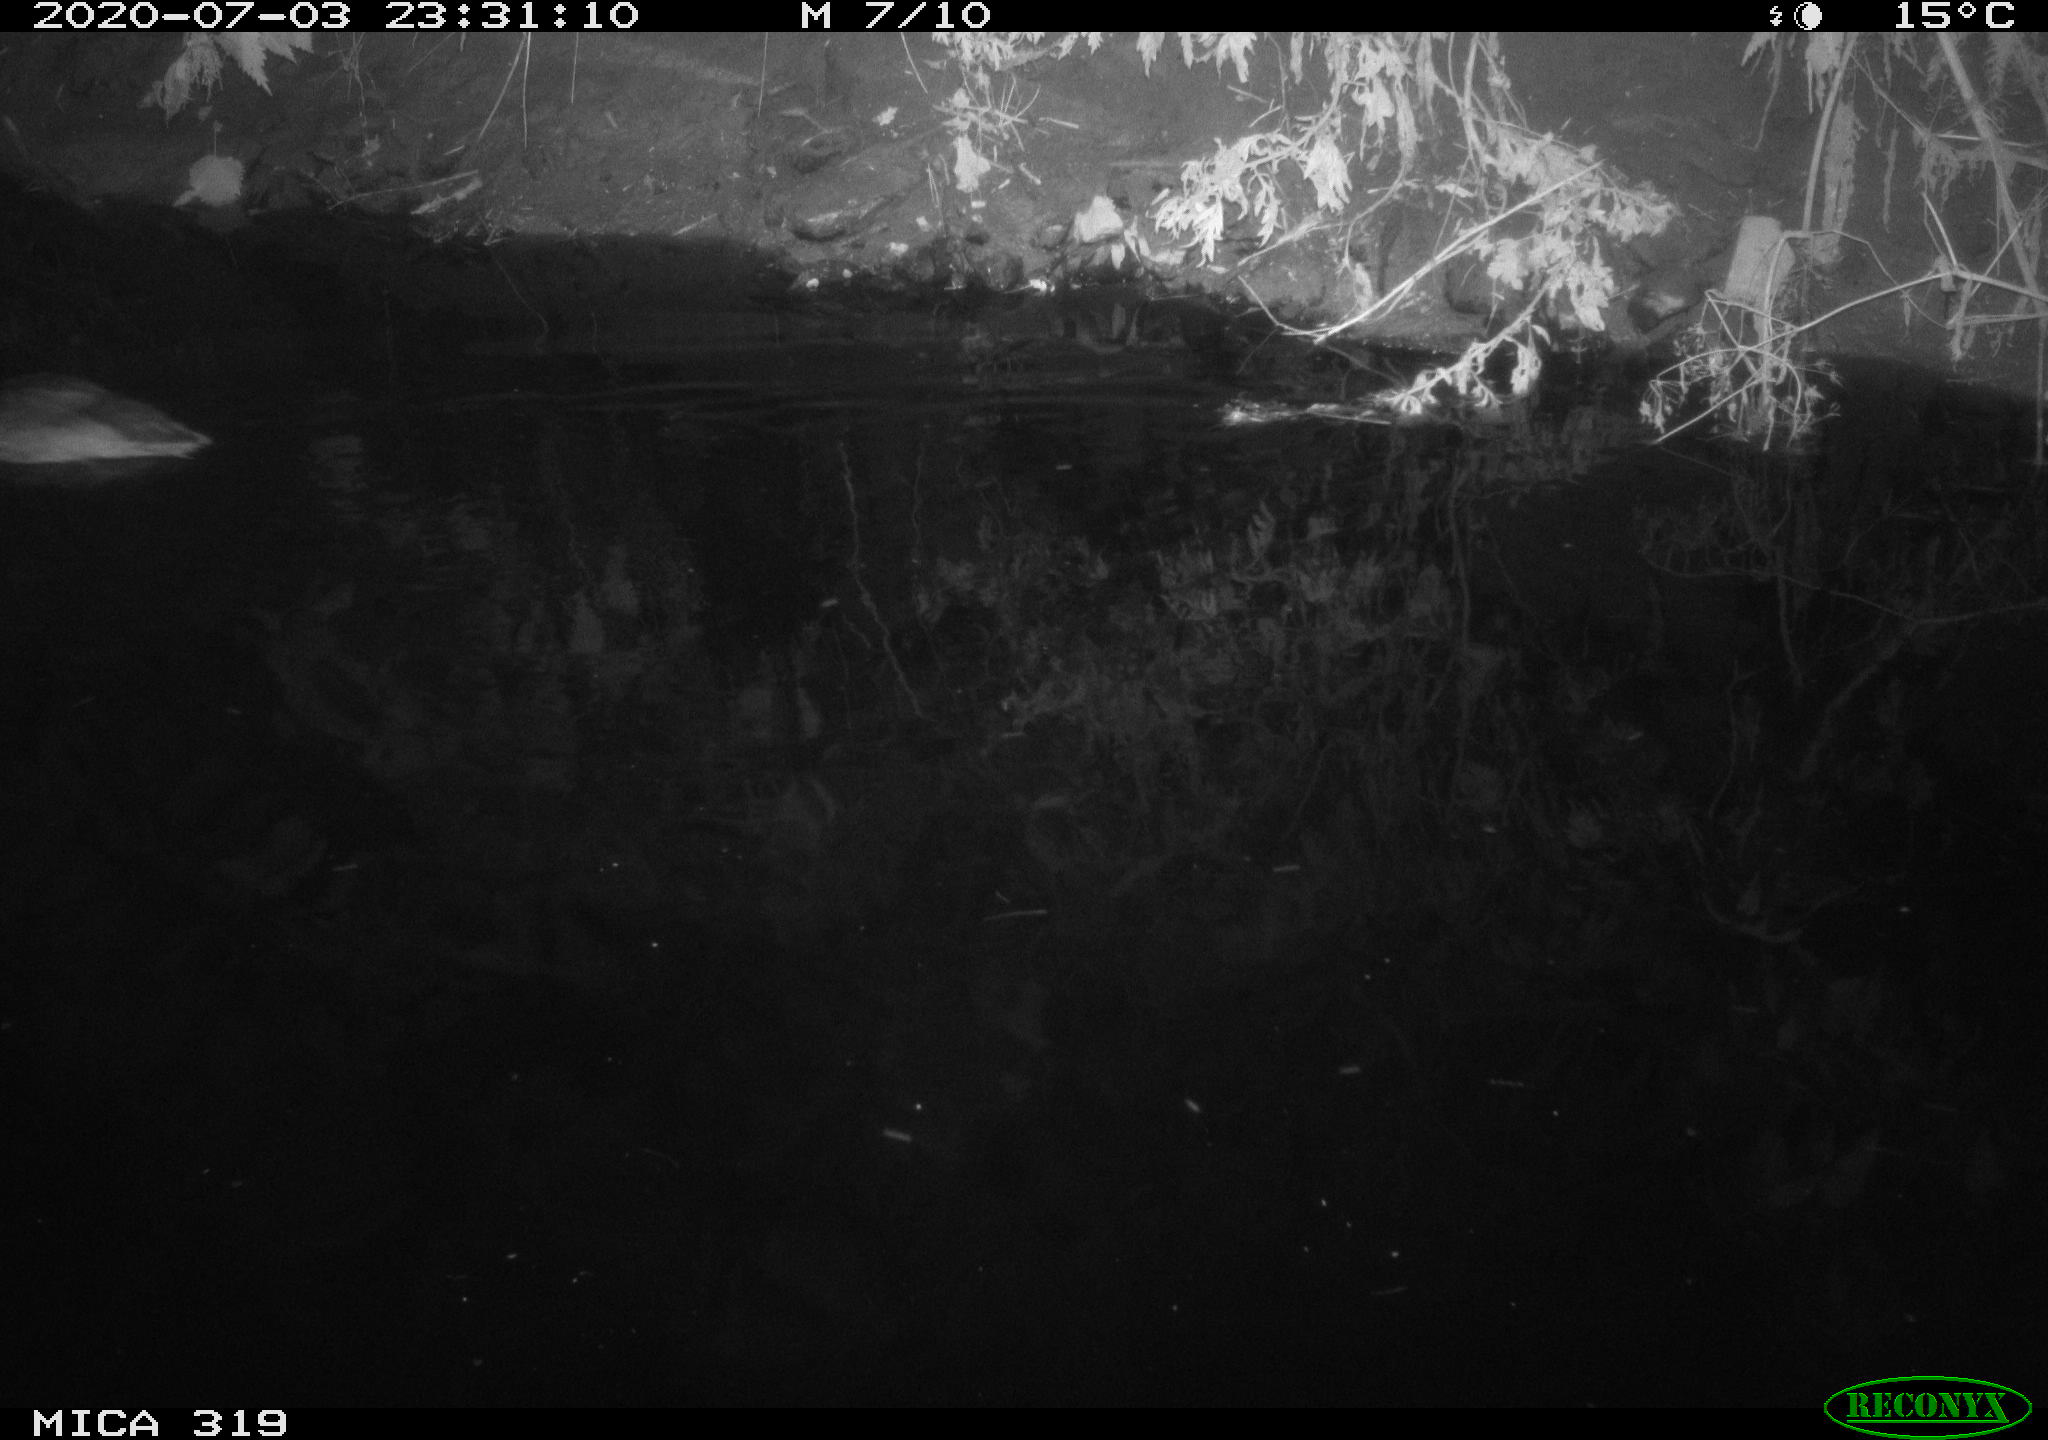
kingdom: Animalia
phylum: Chordata
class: Aves
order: Anseriformes
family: Anatidae
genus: Anas
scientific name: Anas platyrhynchos
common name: Mallard
